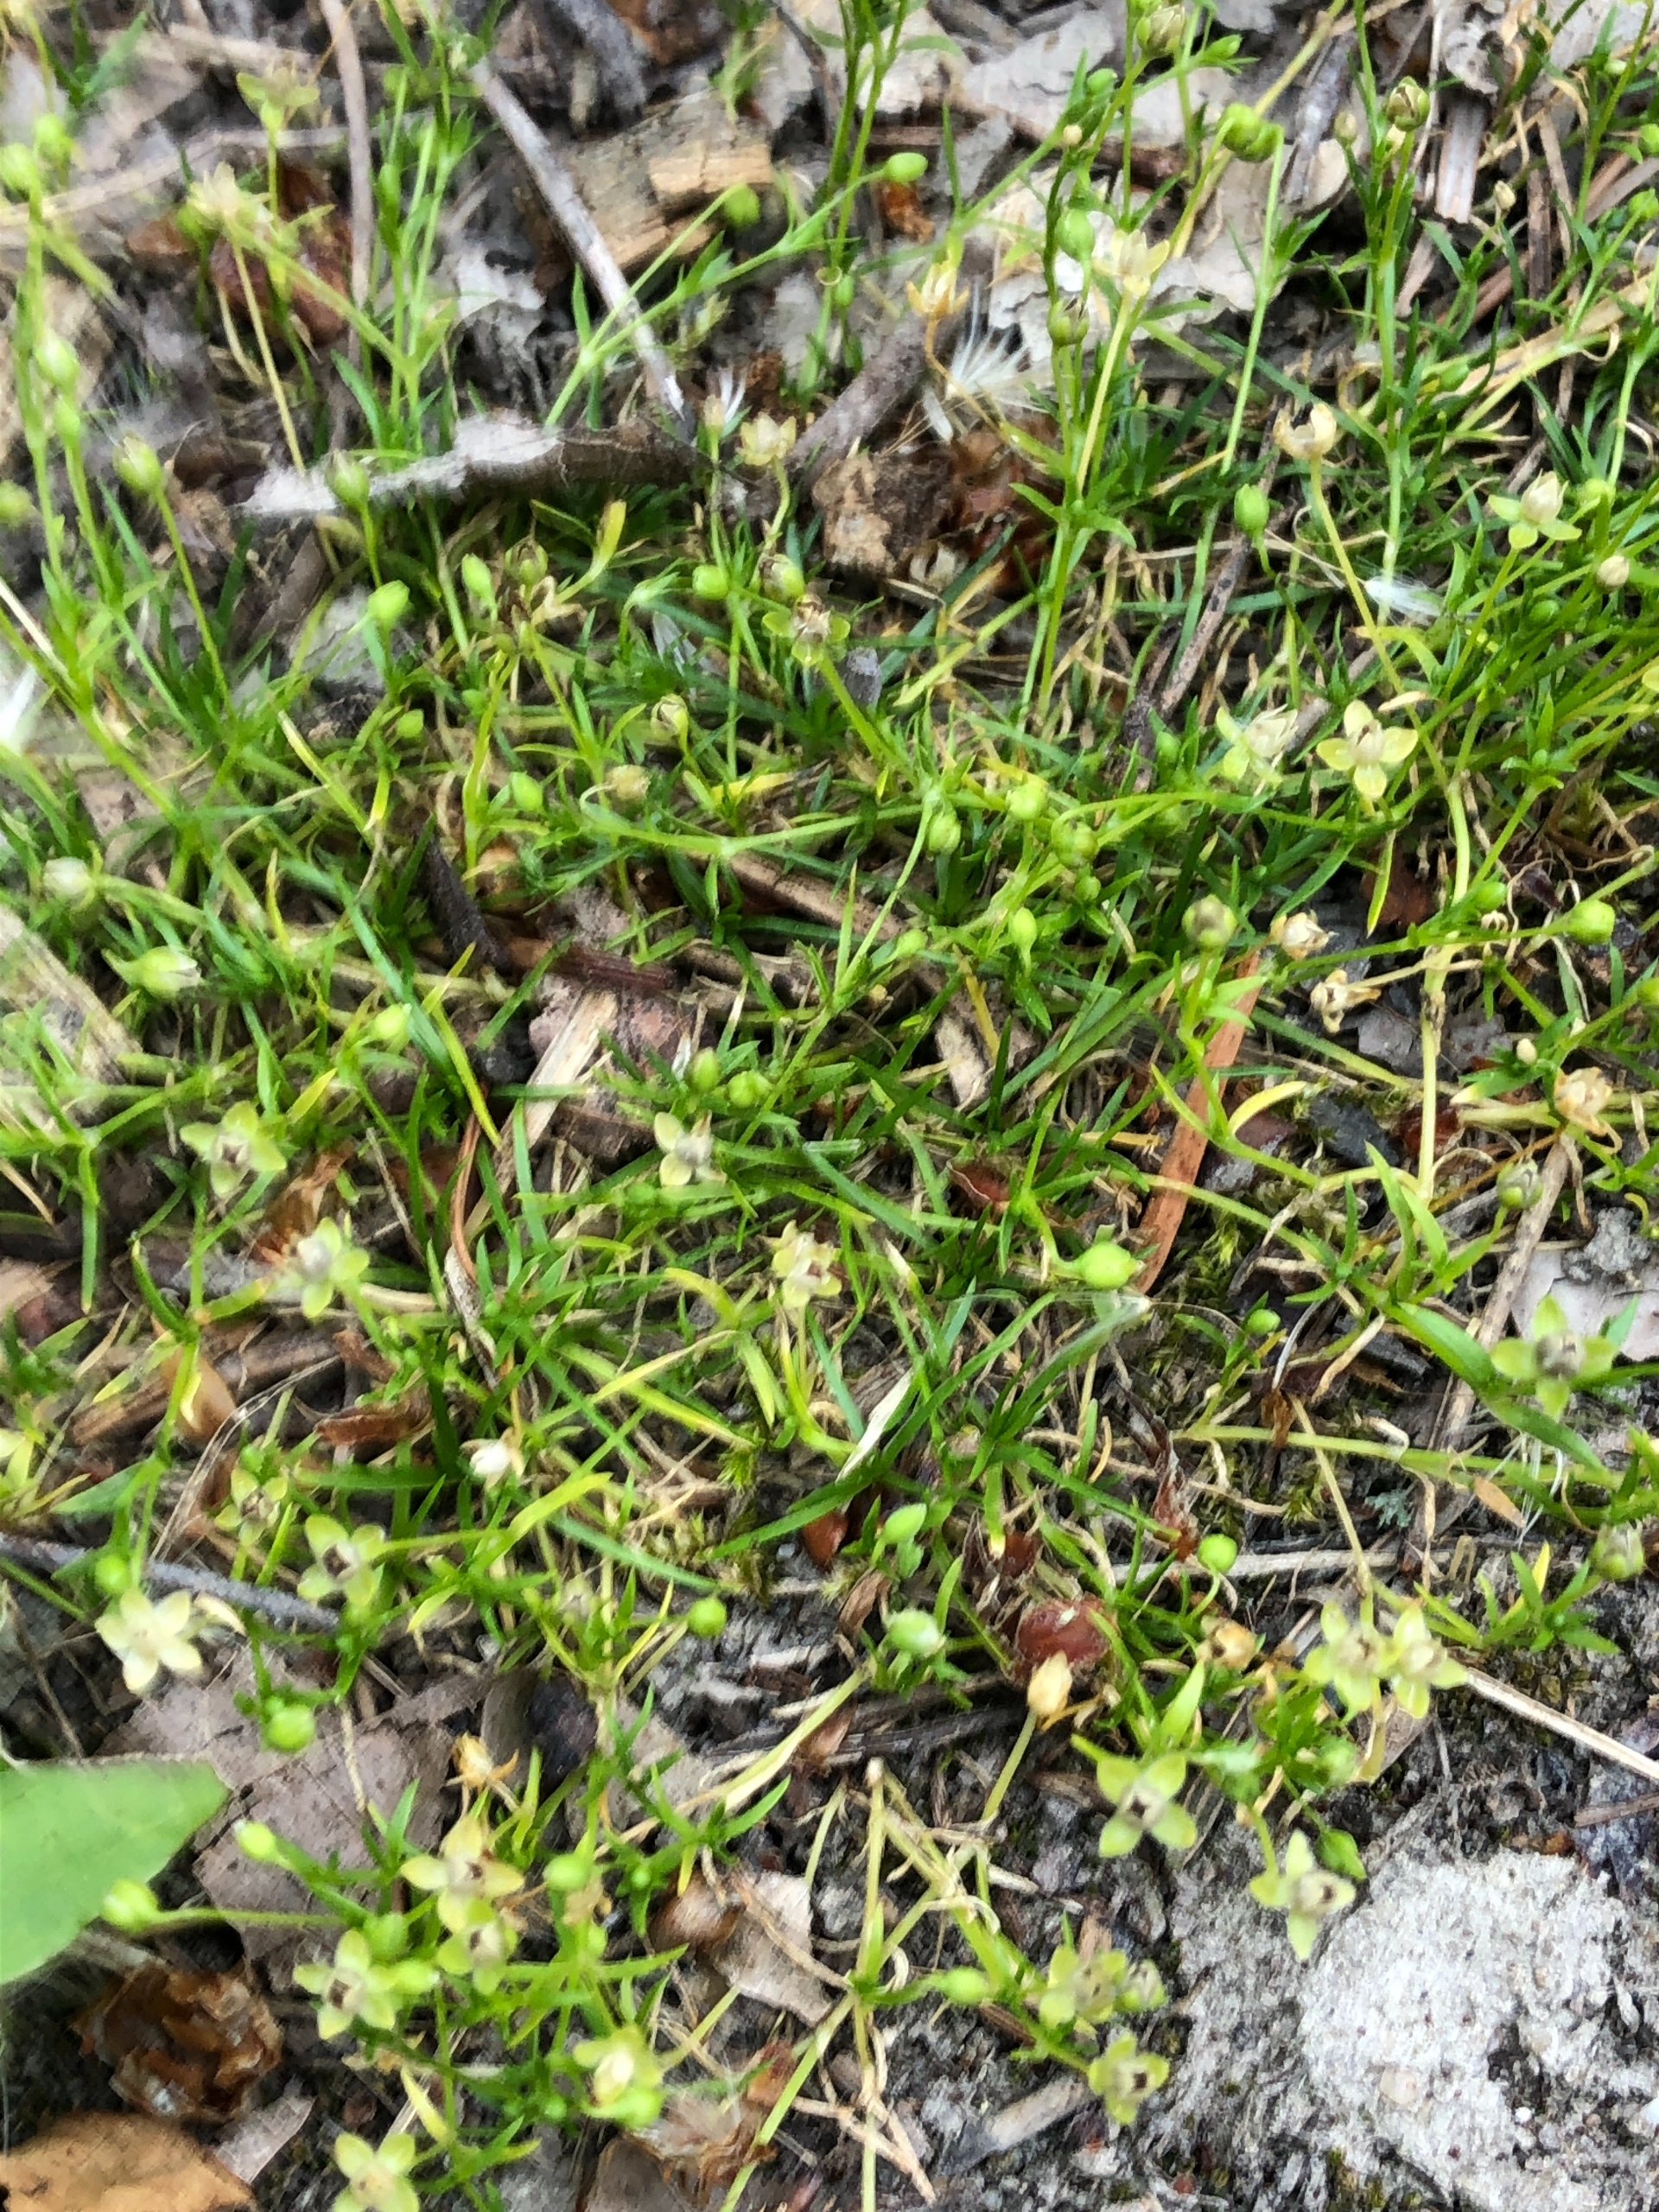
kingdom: Plantae
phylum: Tracheophyta
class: Magnoliopsida
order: Caryophyllales
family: Caryophyllaceae
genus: Sagina
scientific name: Sagina procumbens
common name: Almindelig firling
